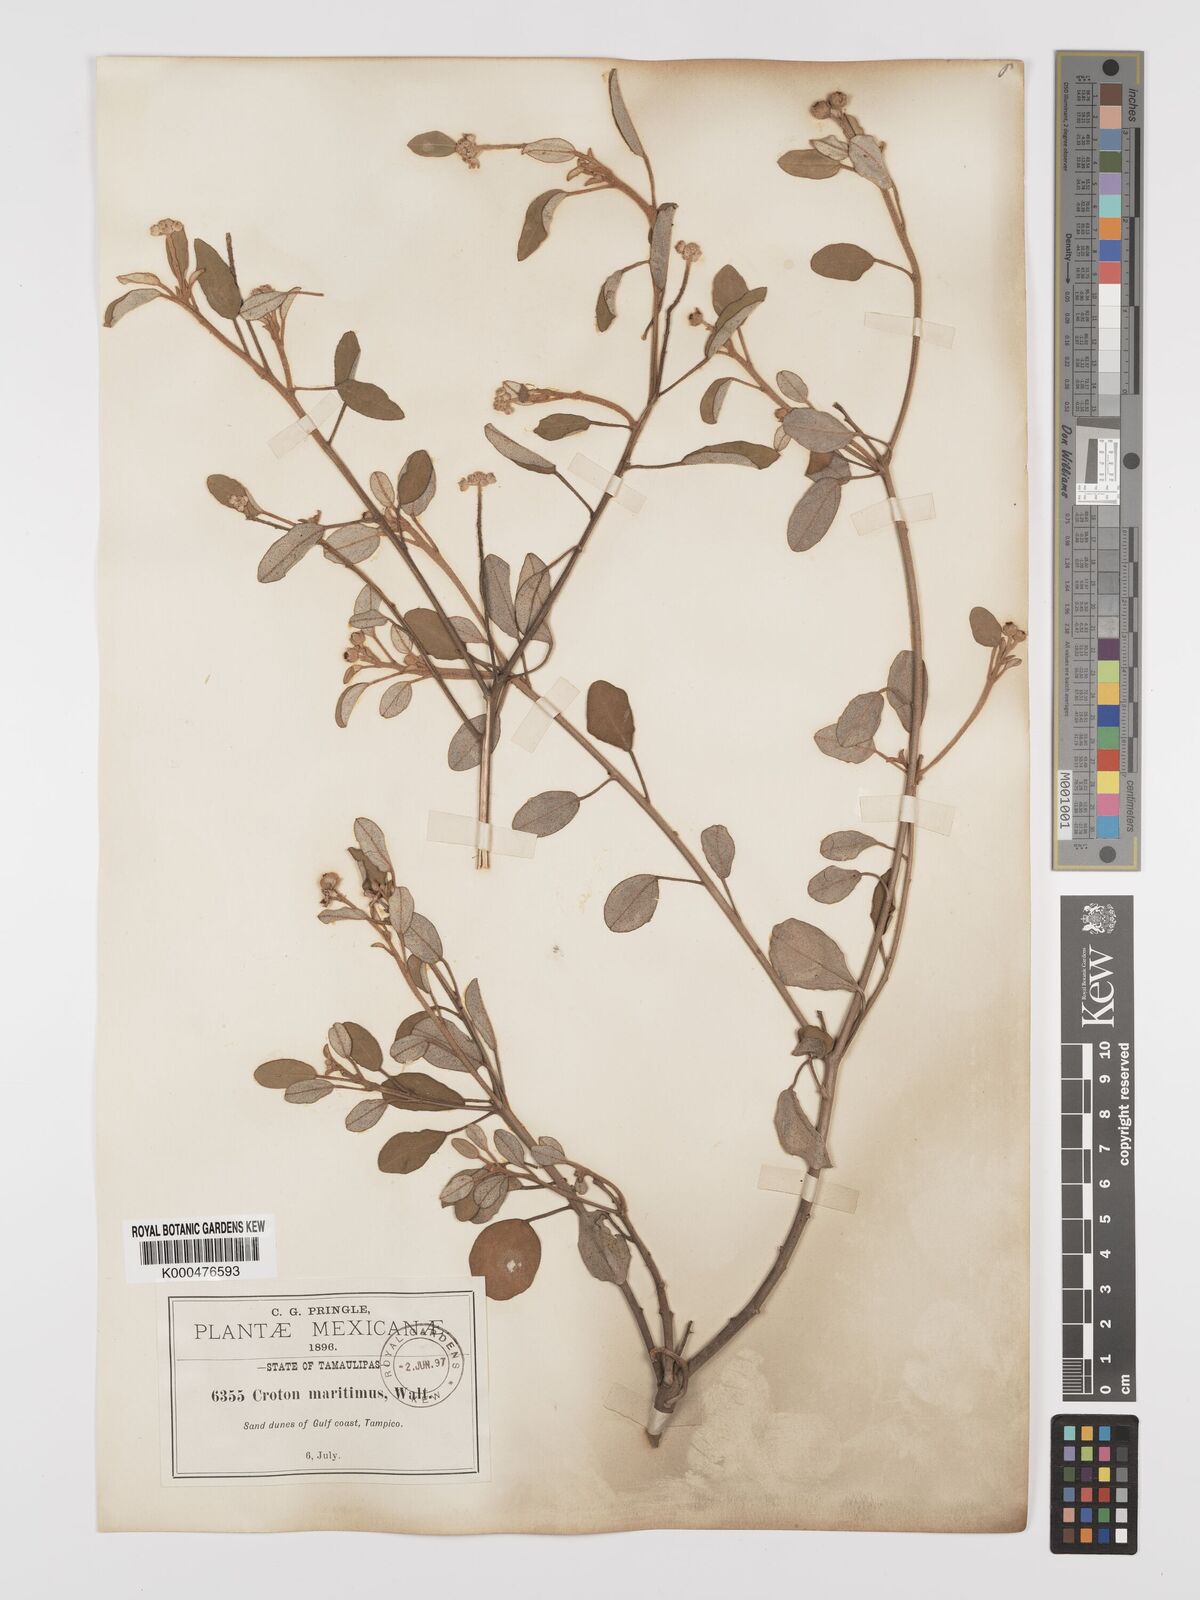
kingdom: Plantae
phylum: Tracheophyta
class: Magnoliopsida
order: Malpighiales
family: Euphorbiaceae
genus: Croton
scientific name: Croton punctatus
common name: Beach-tea
